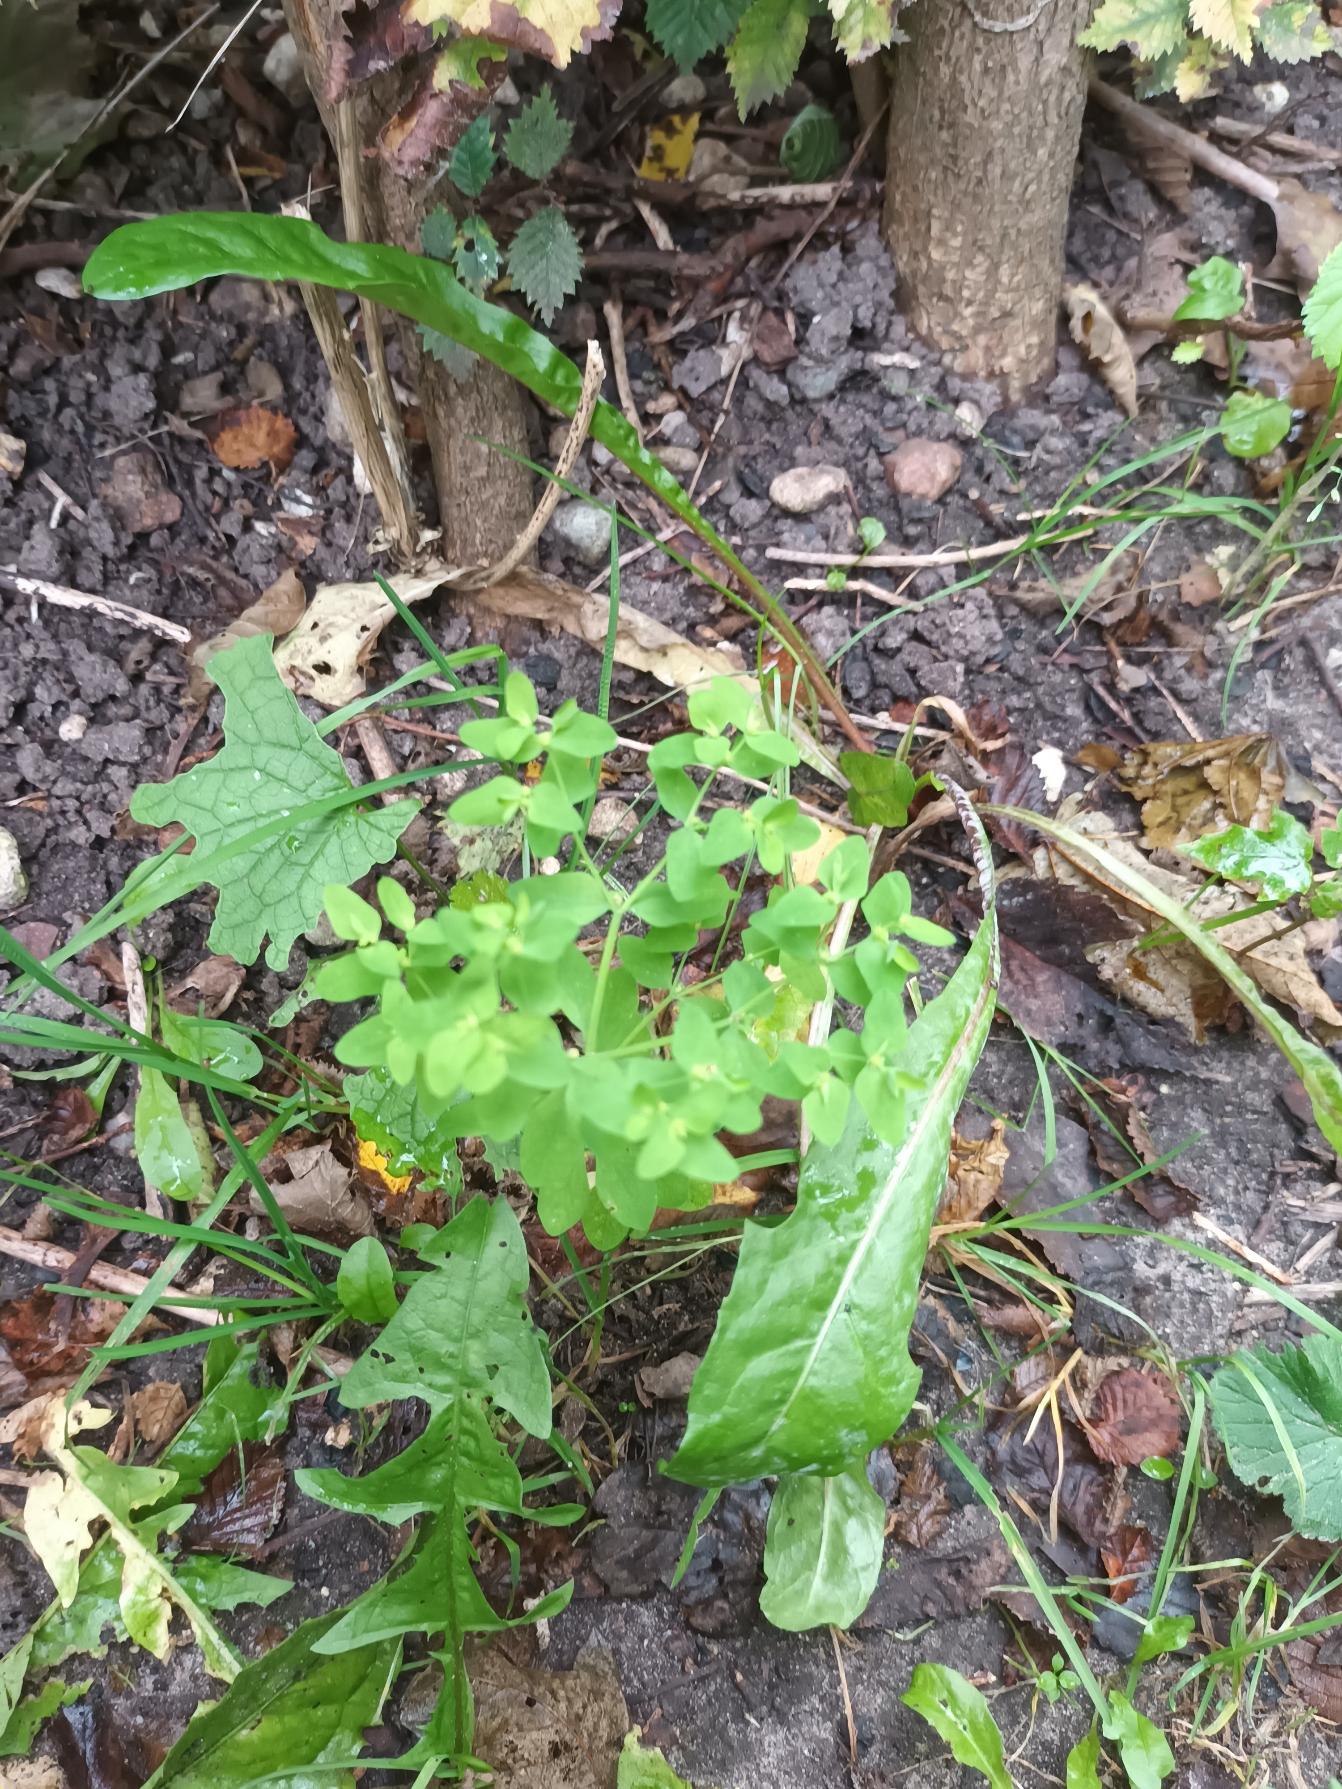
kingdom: Plantae
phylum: Tracheophyta
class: Magnoliopsida
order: Malpighiales
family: Euphorbiaceae
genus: Euphorbia
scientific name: Euphorbia peplus
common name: Gaffel-vortemælk
